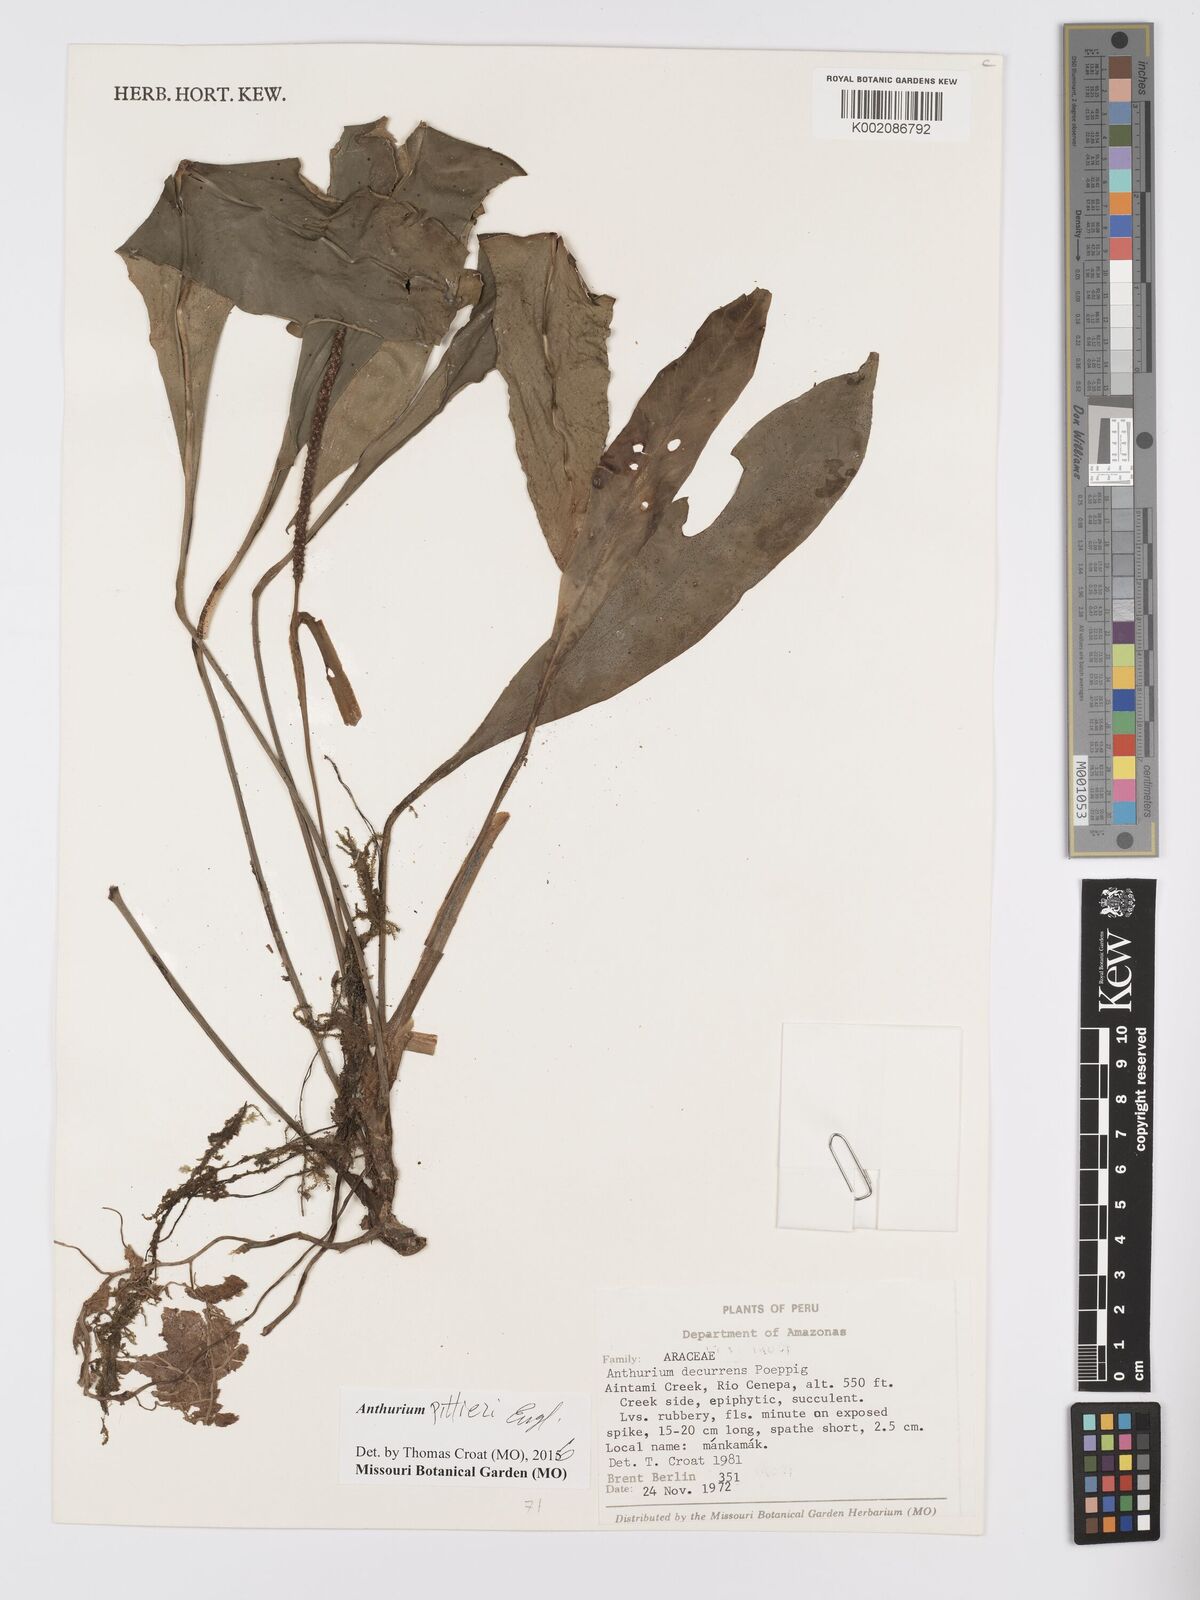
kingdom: Plantae
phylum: Tracheophyta
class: Liliopsida
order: Alismatales
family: Araceae
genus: Anthurium
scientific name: Anthurium pittieri
